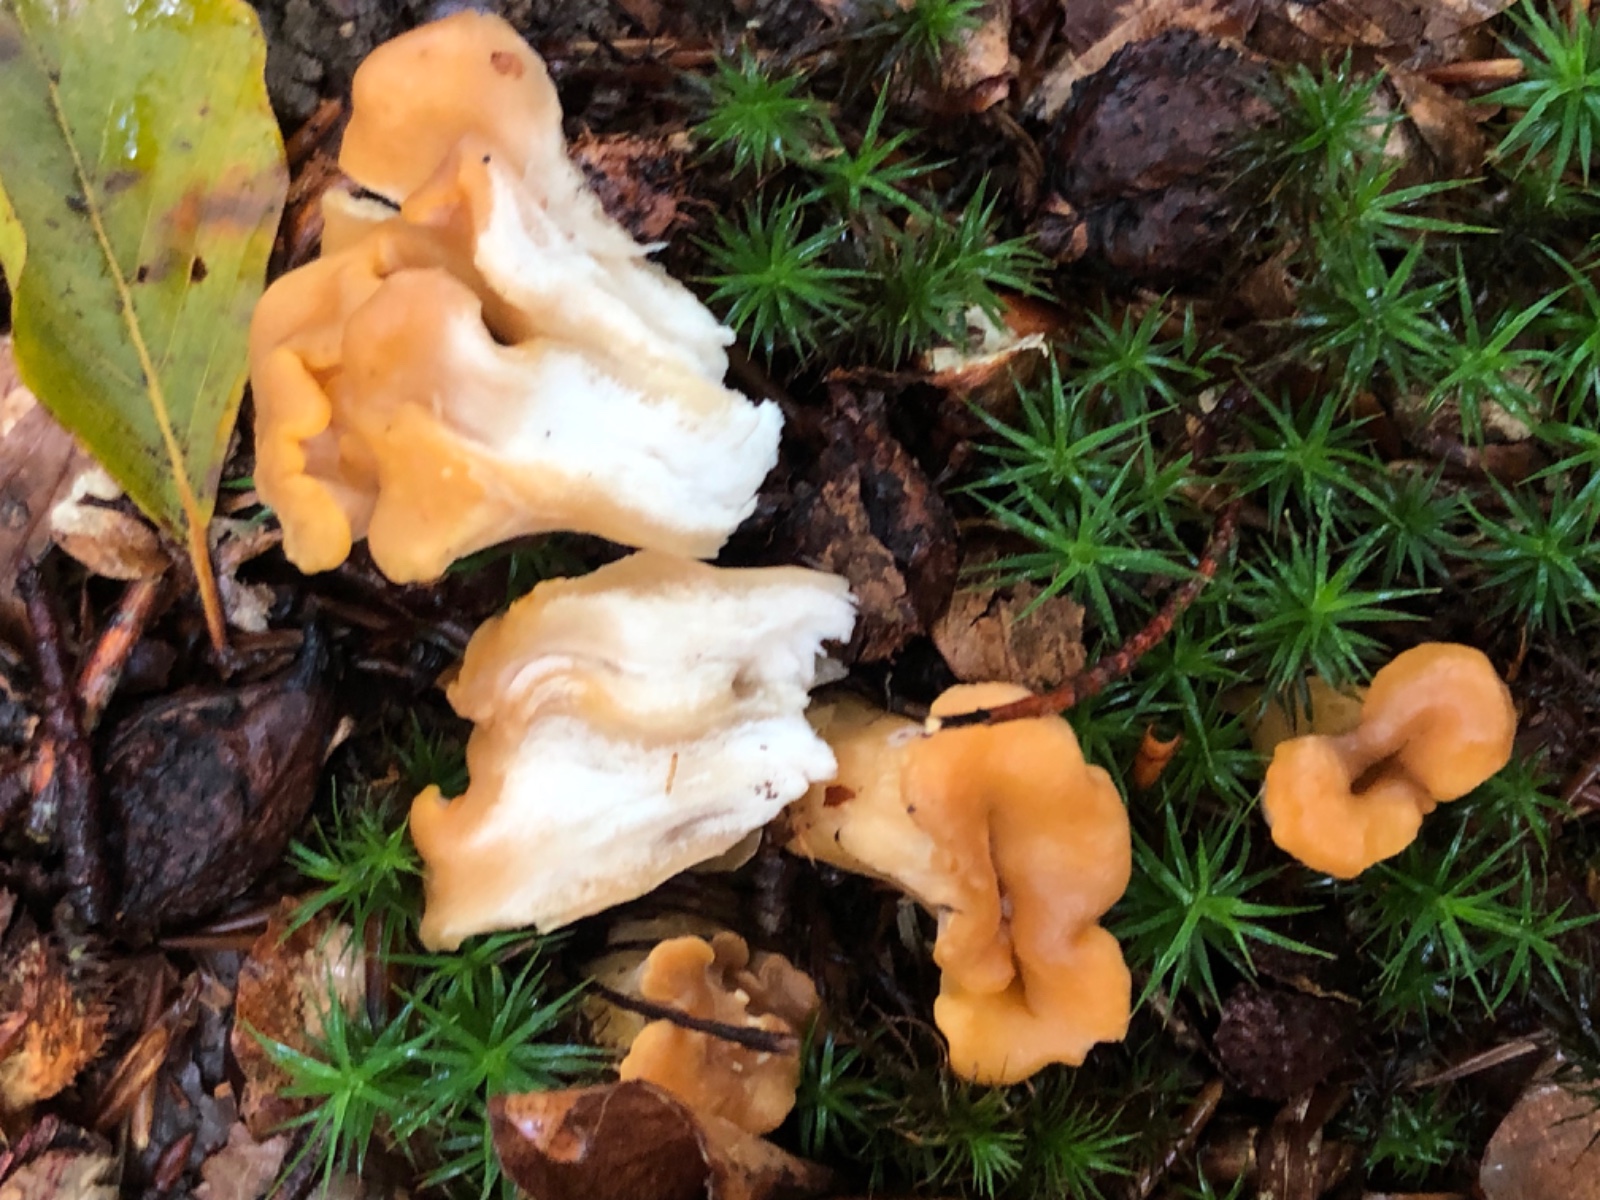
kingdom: Fungi
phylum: Basidiomycota
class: Agaricomycetes
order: Cantharellales
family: Hydnaceae
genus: Cantharellus
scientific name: Cantharellus
